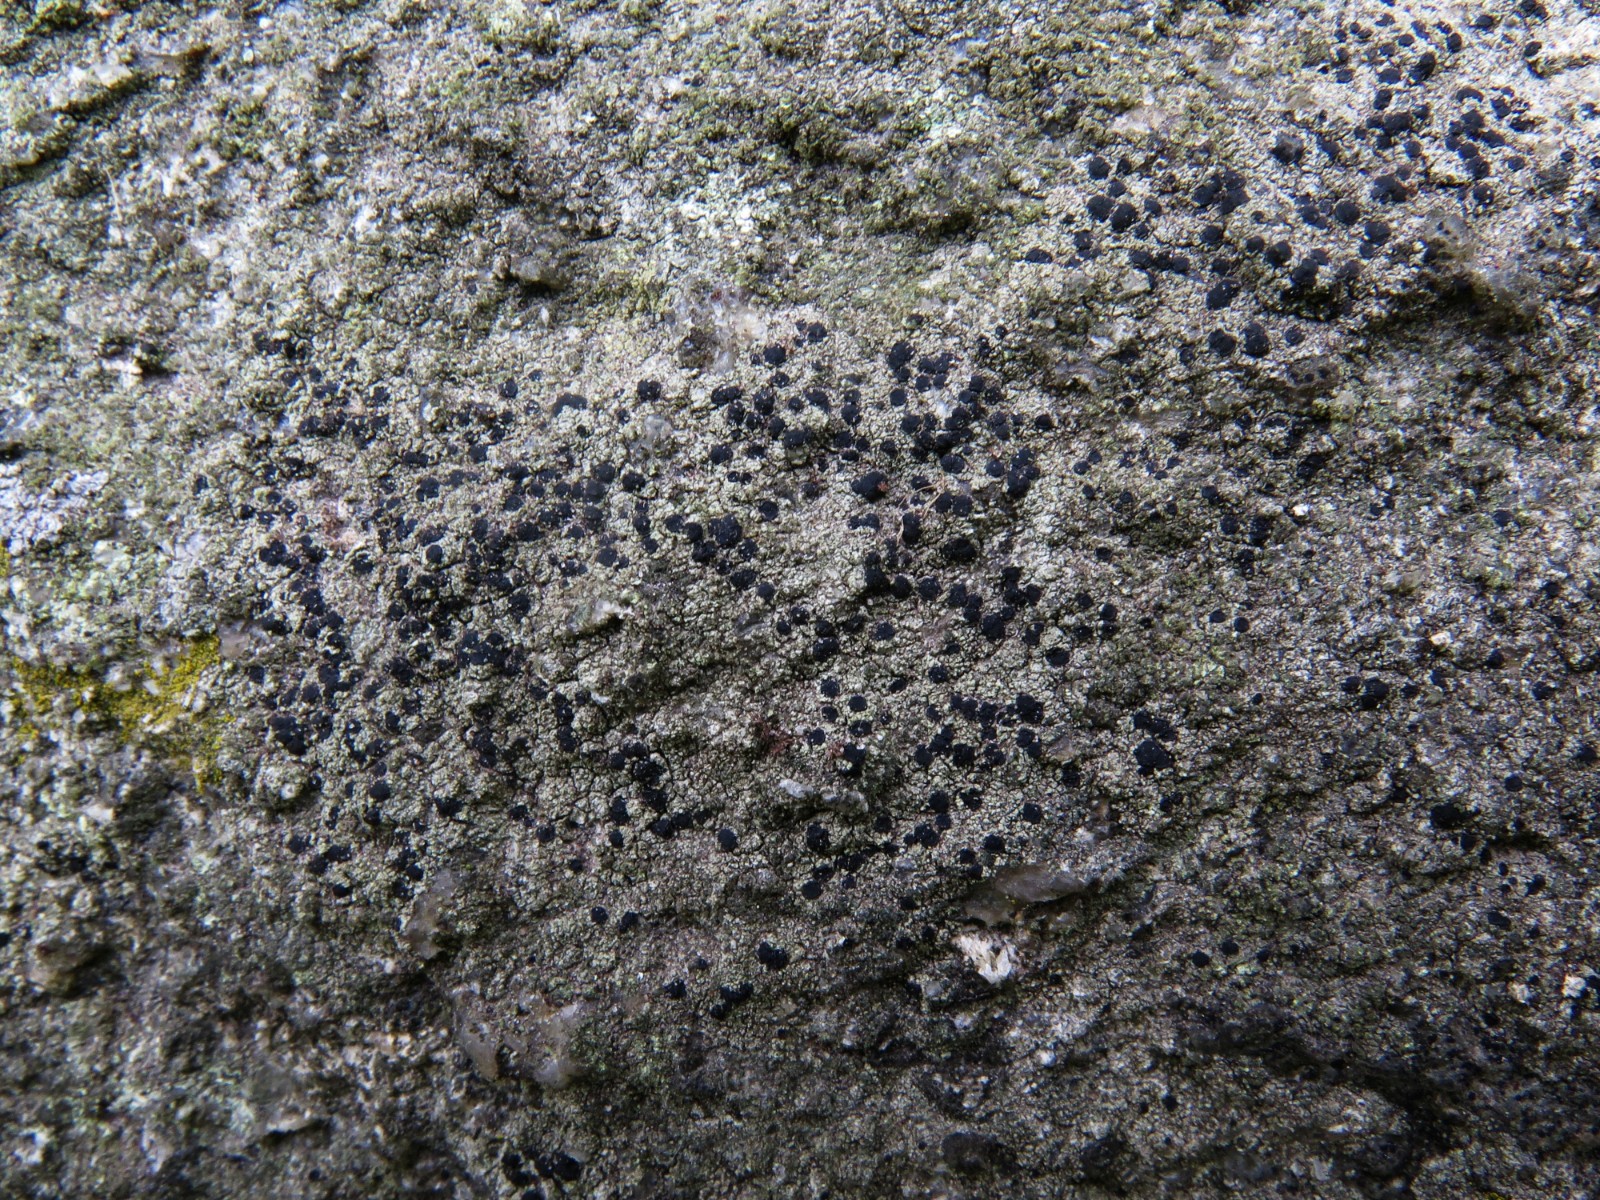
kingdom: Fungi
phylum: Ascomycota
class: Lecanoromycetes
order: Lecanorales
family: Lecanoraceae
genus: Lecidella
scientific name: Lecidella scabra
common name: skurvet skivelav
